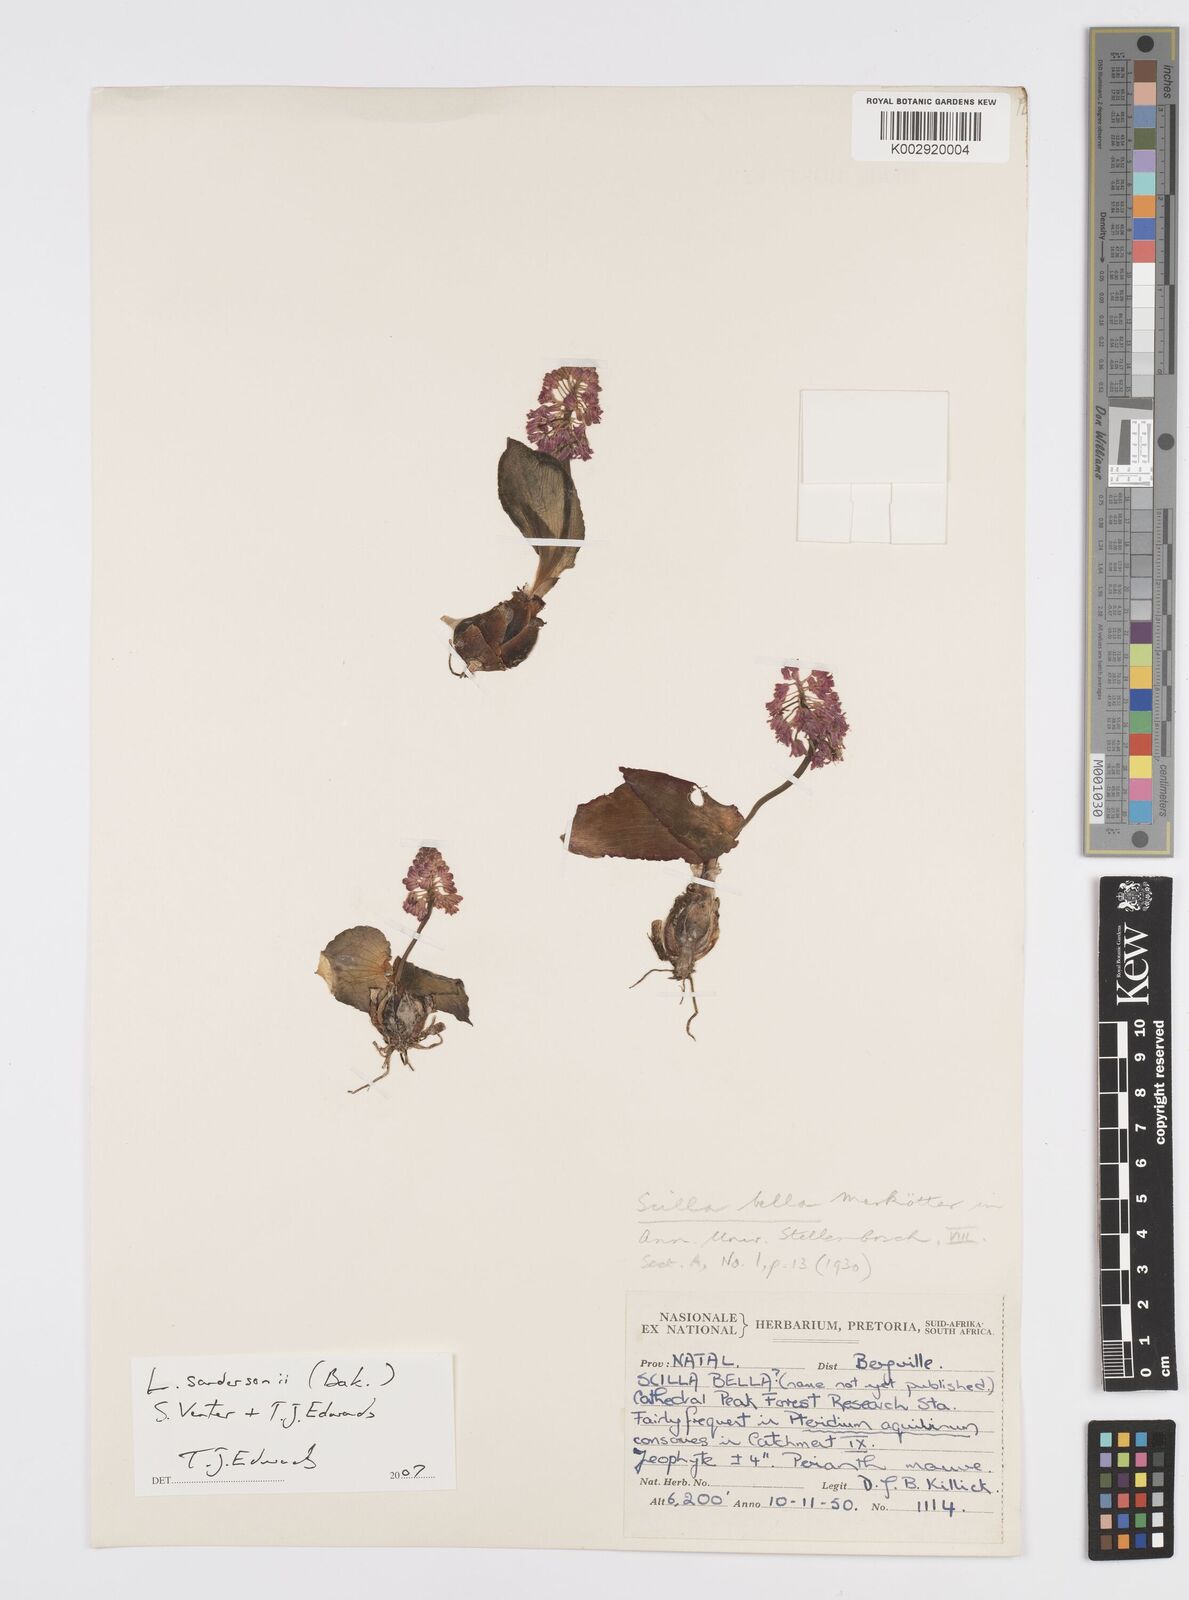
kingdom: Plantae
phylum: Tracheophyta
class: Liliopsida
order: Asparagales
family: Asparagaceae
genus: Ledebouria
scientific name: Ledebouria sandersonii
